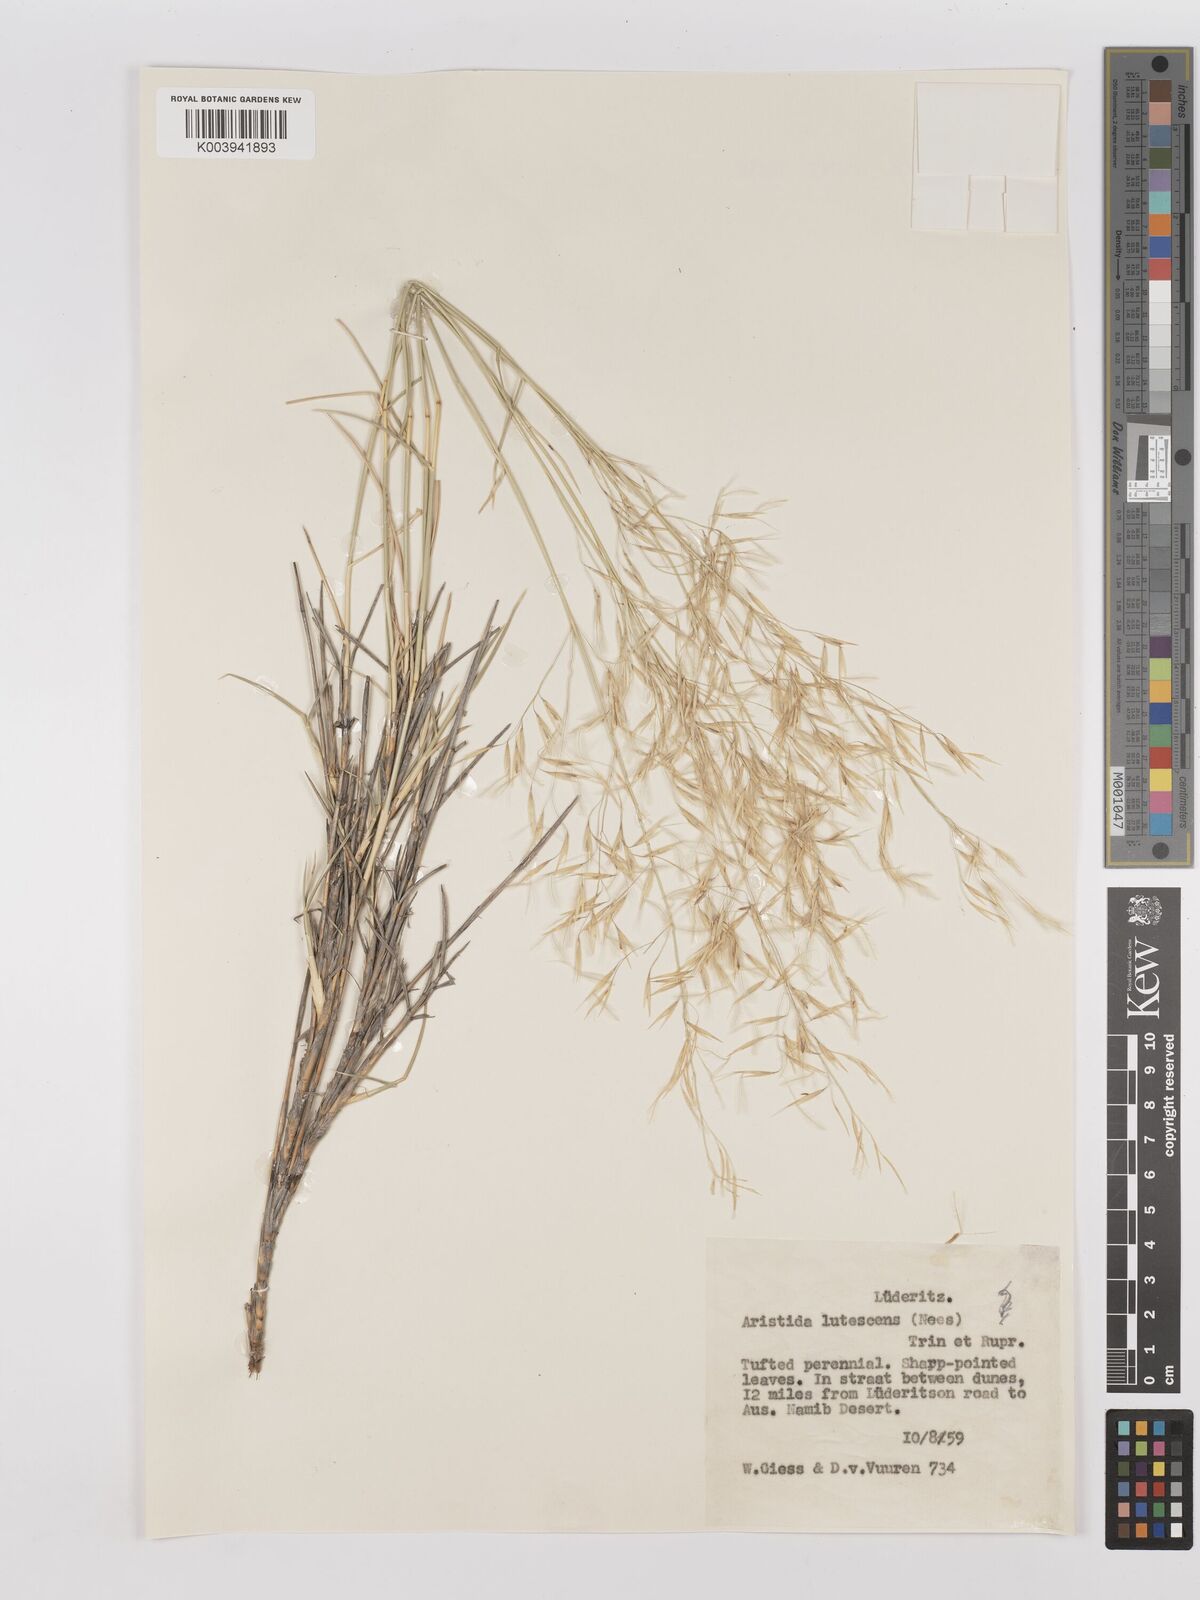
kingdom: Plantae
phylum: Tracheophyta
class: Liliopsida
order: Poales
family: Poaceae
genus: Stipagrostis
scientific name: Stipagrostis lutescens
